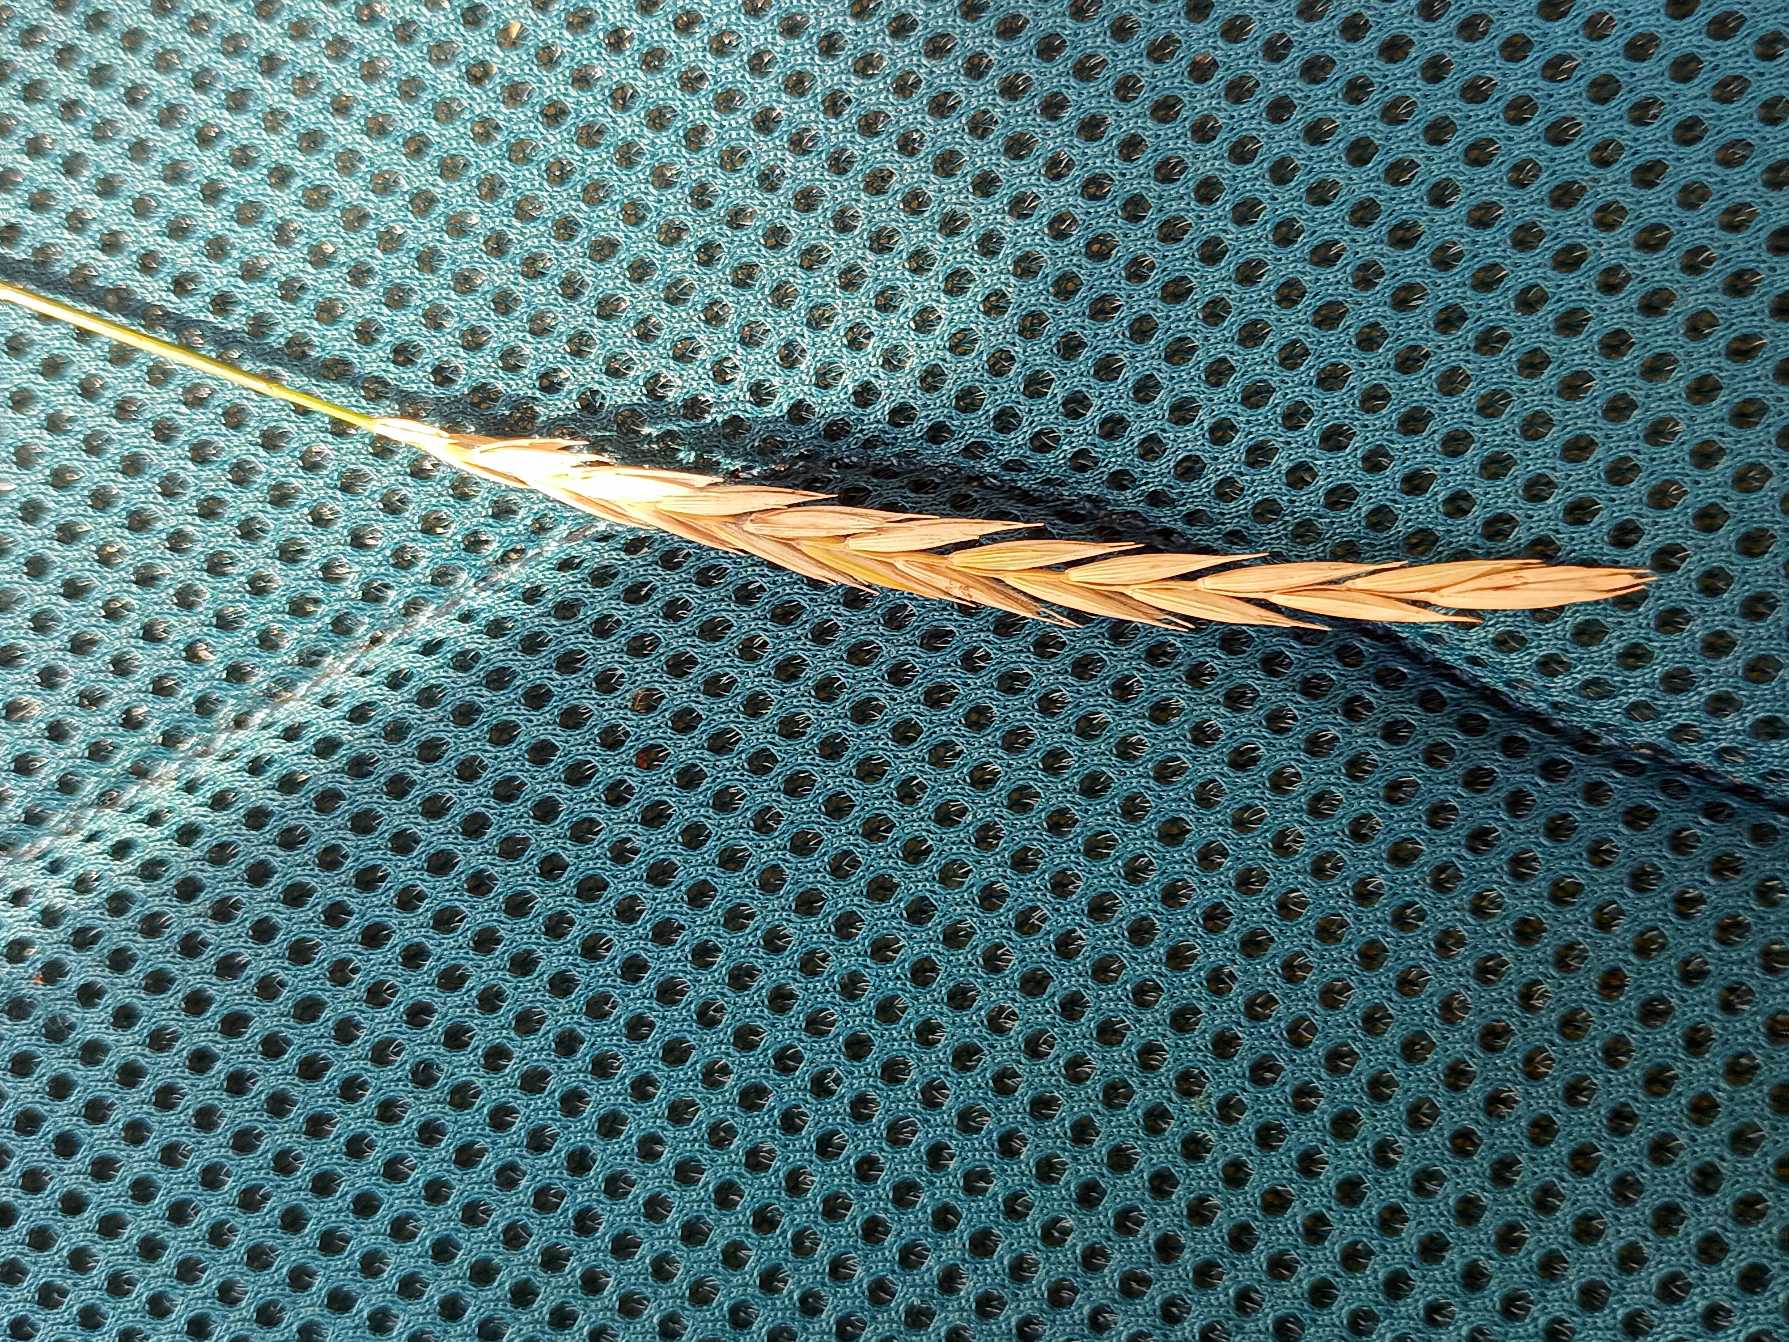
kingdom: Plantae
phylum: Tracheophyta
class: Liliopsida
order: Poales
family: Poaceae
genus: Elymus
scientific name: Elymus repens
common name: Almindelig kvik
